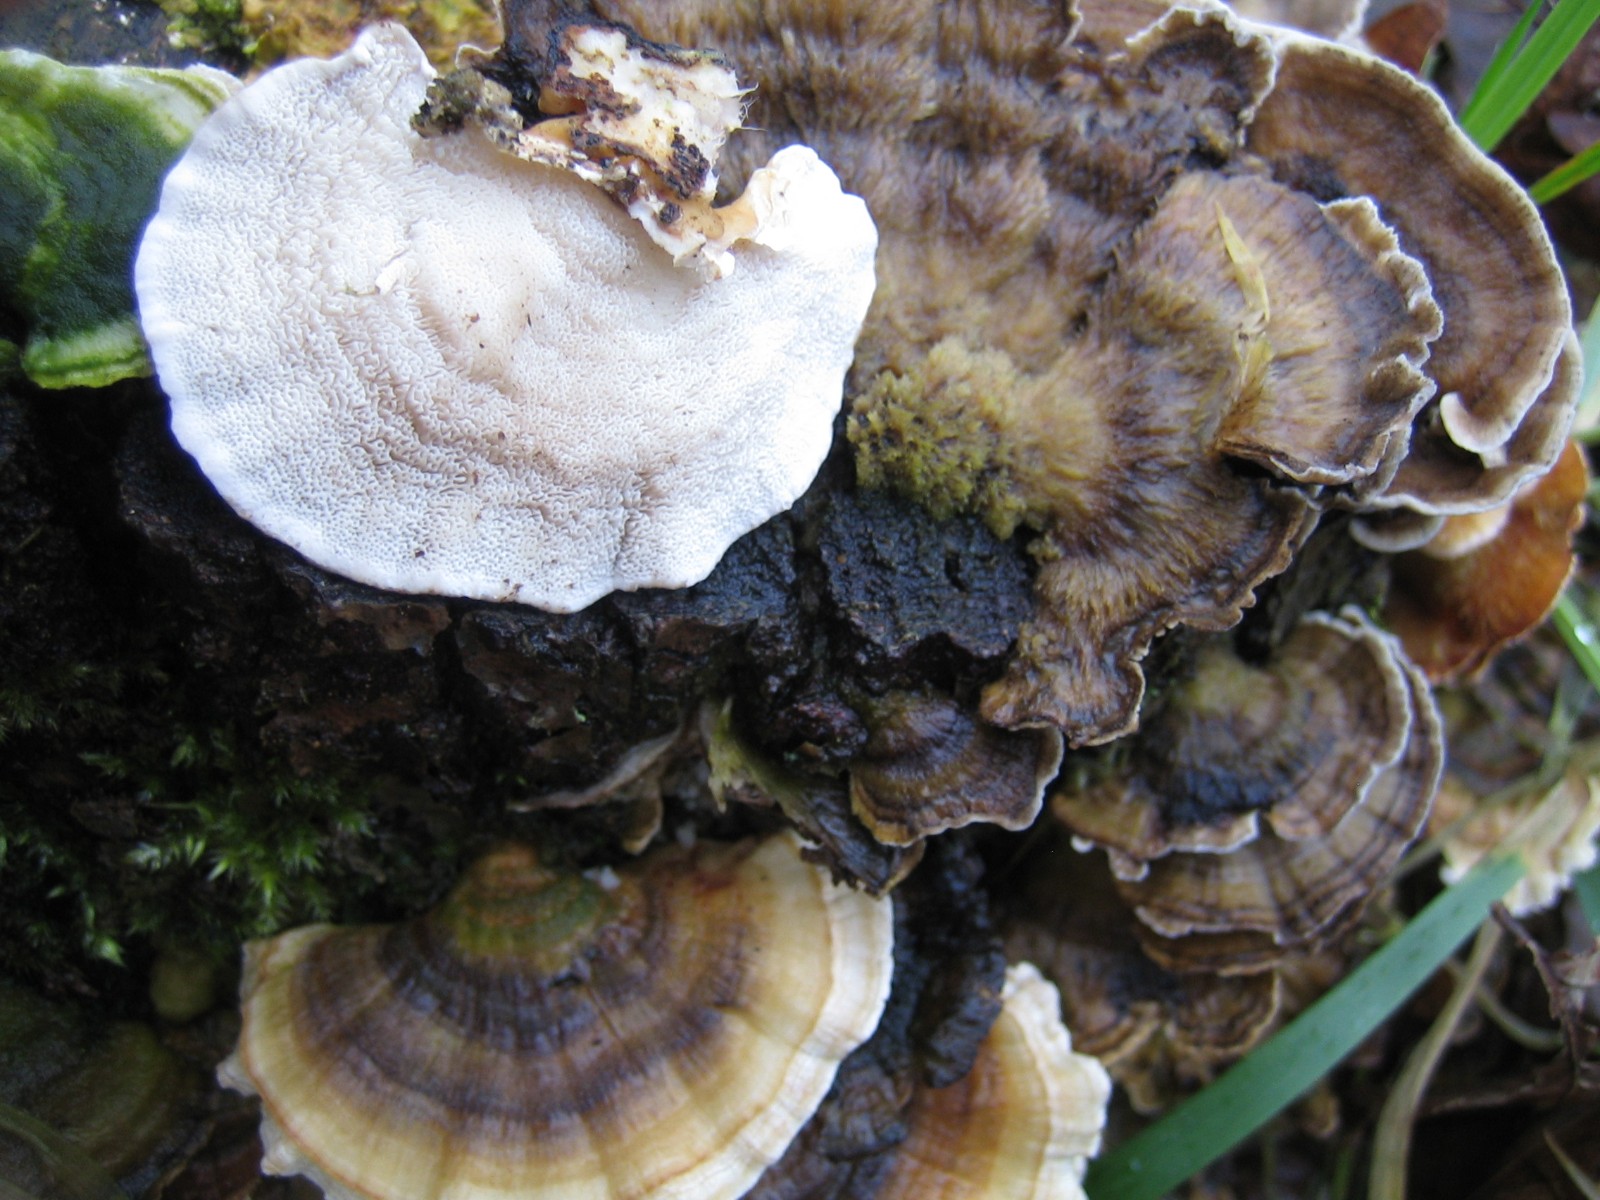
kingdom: Fungi
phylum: Basidiomycota
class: Agaricomycetes
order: Polyporales
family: Polyporaceae
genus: Trametes
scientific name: Trametes versicolor
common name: broget læderporesvamp
